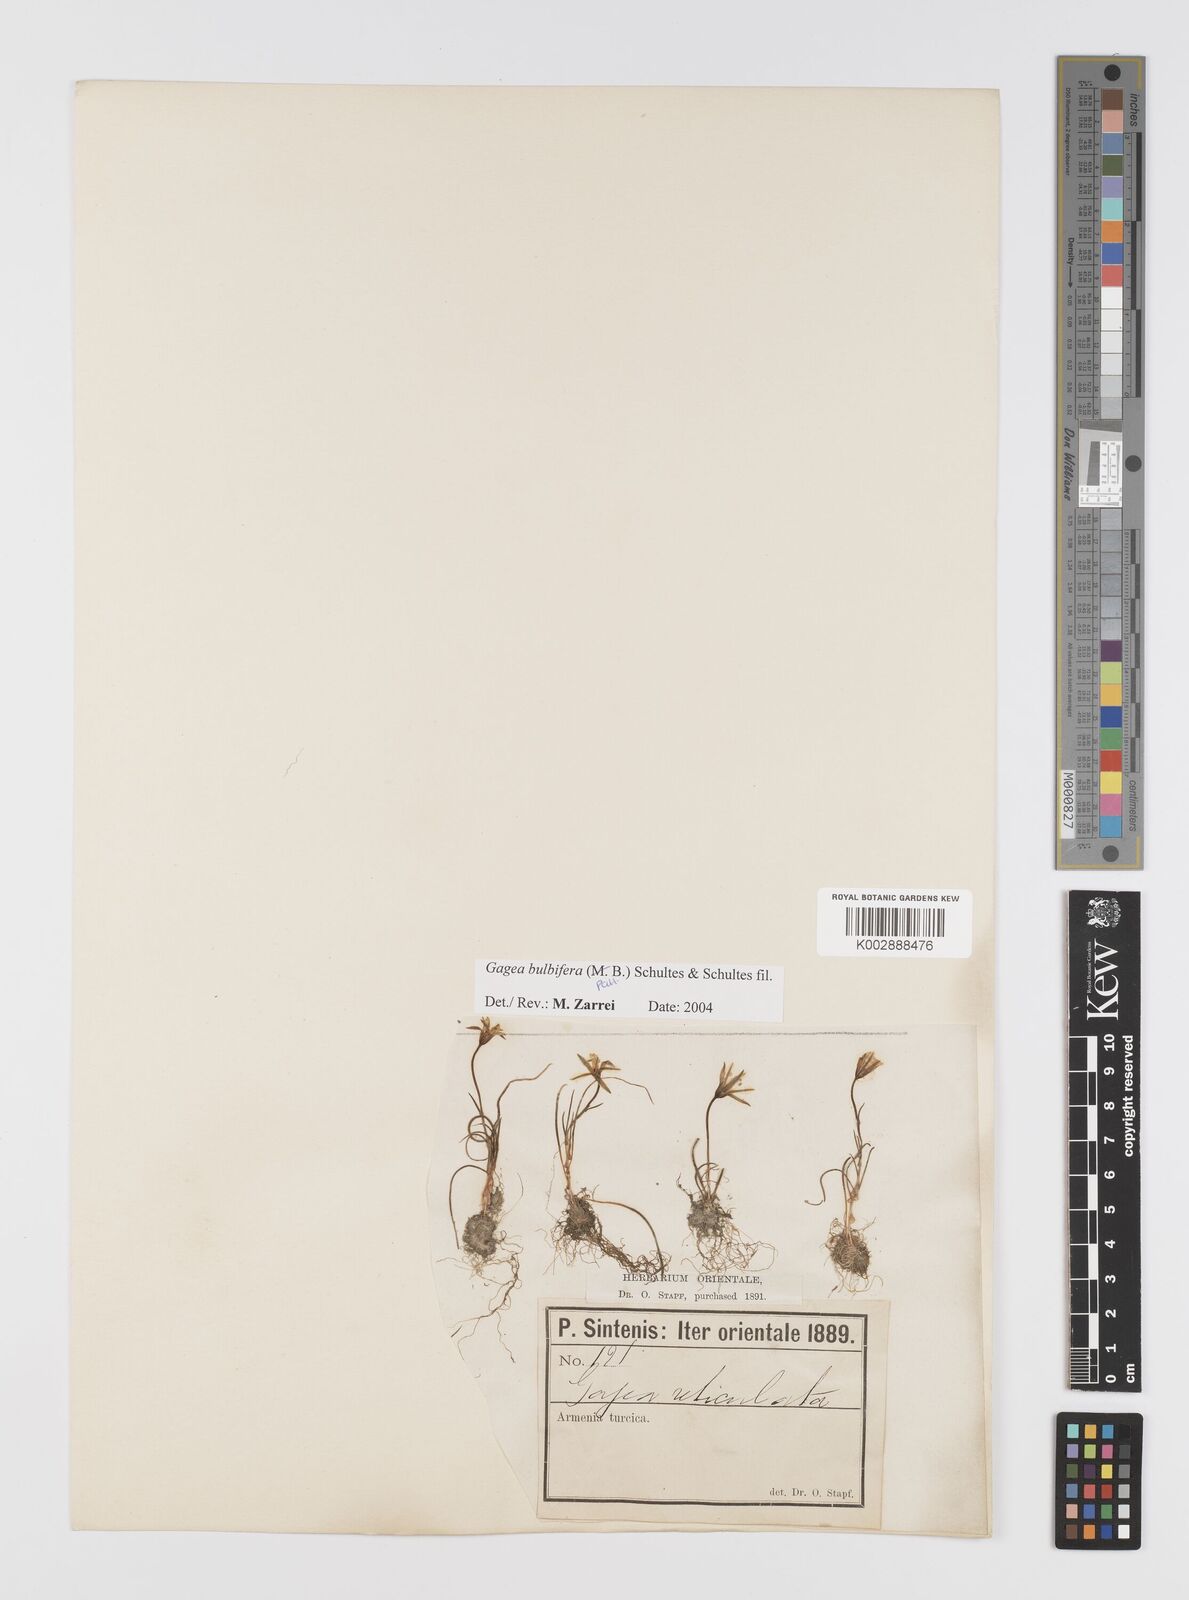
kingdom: Plantae
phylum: Tracheophyta
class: Liliopsida
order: Liliales
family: Liliaceae
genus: Gagea
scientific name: Gagea bulbifera
